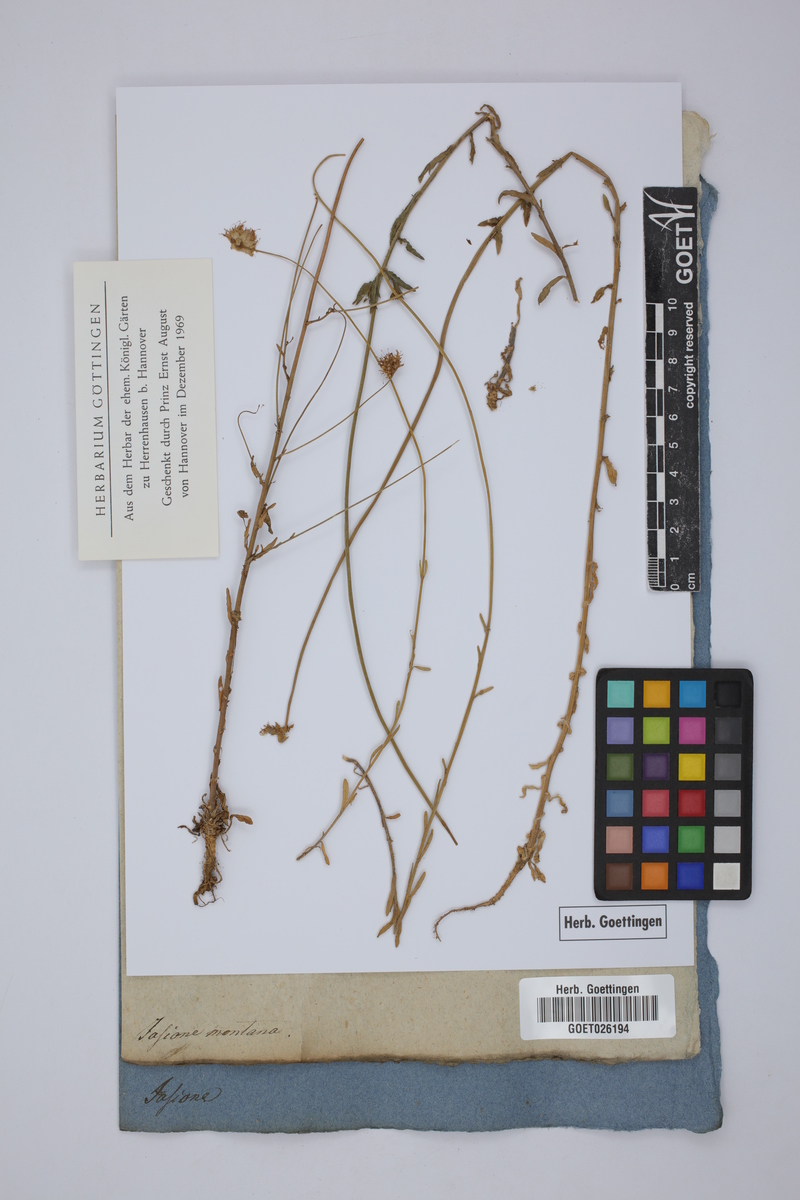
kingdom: Plantae
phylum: Tracheophyta
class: Magnoliopsida
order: Asterales
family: Campanulaceae
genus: Jasione
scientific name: Jasione montana
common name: Sheep's-bit
